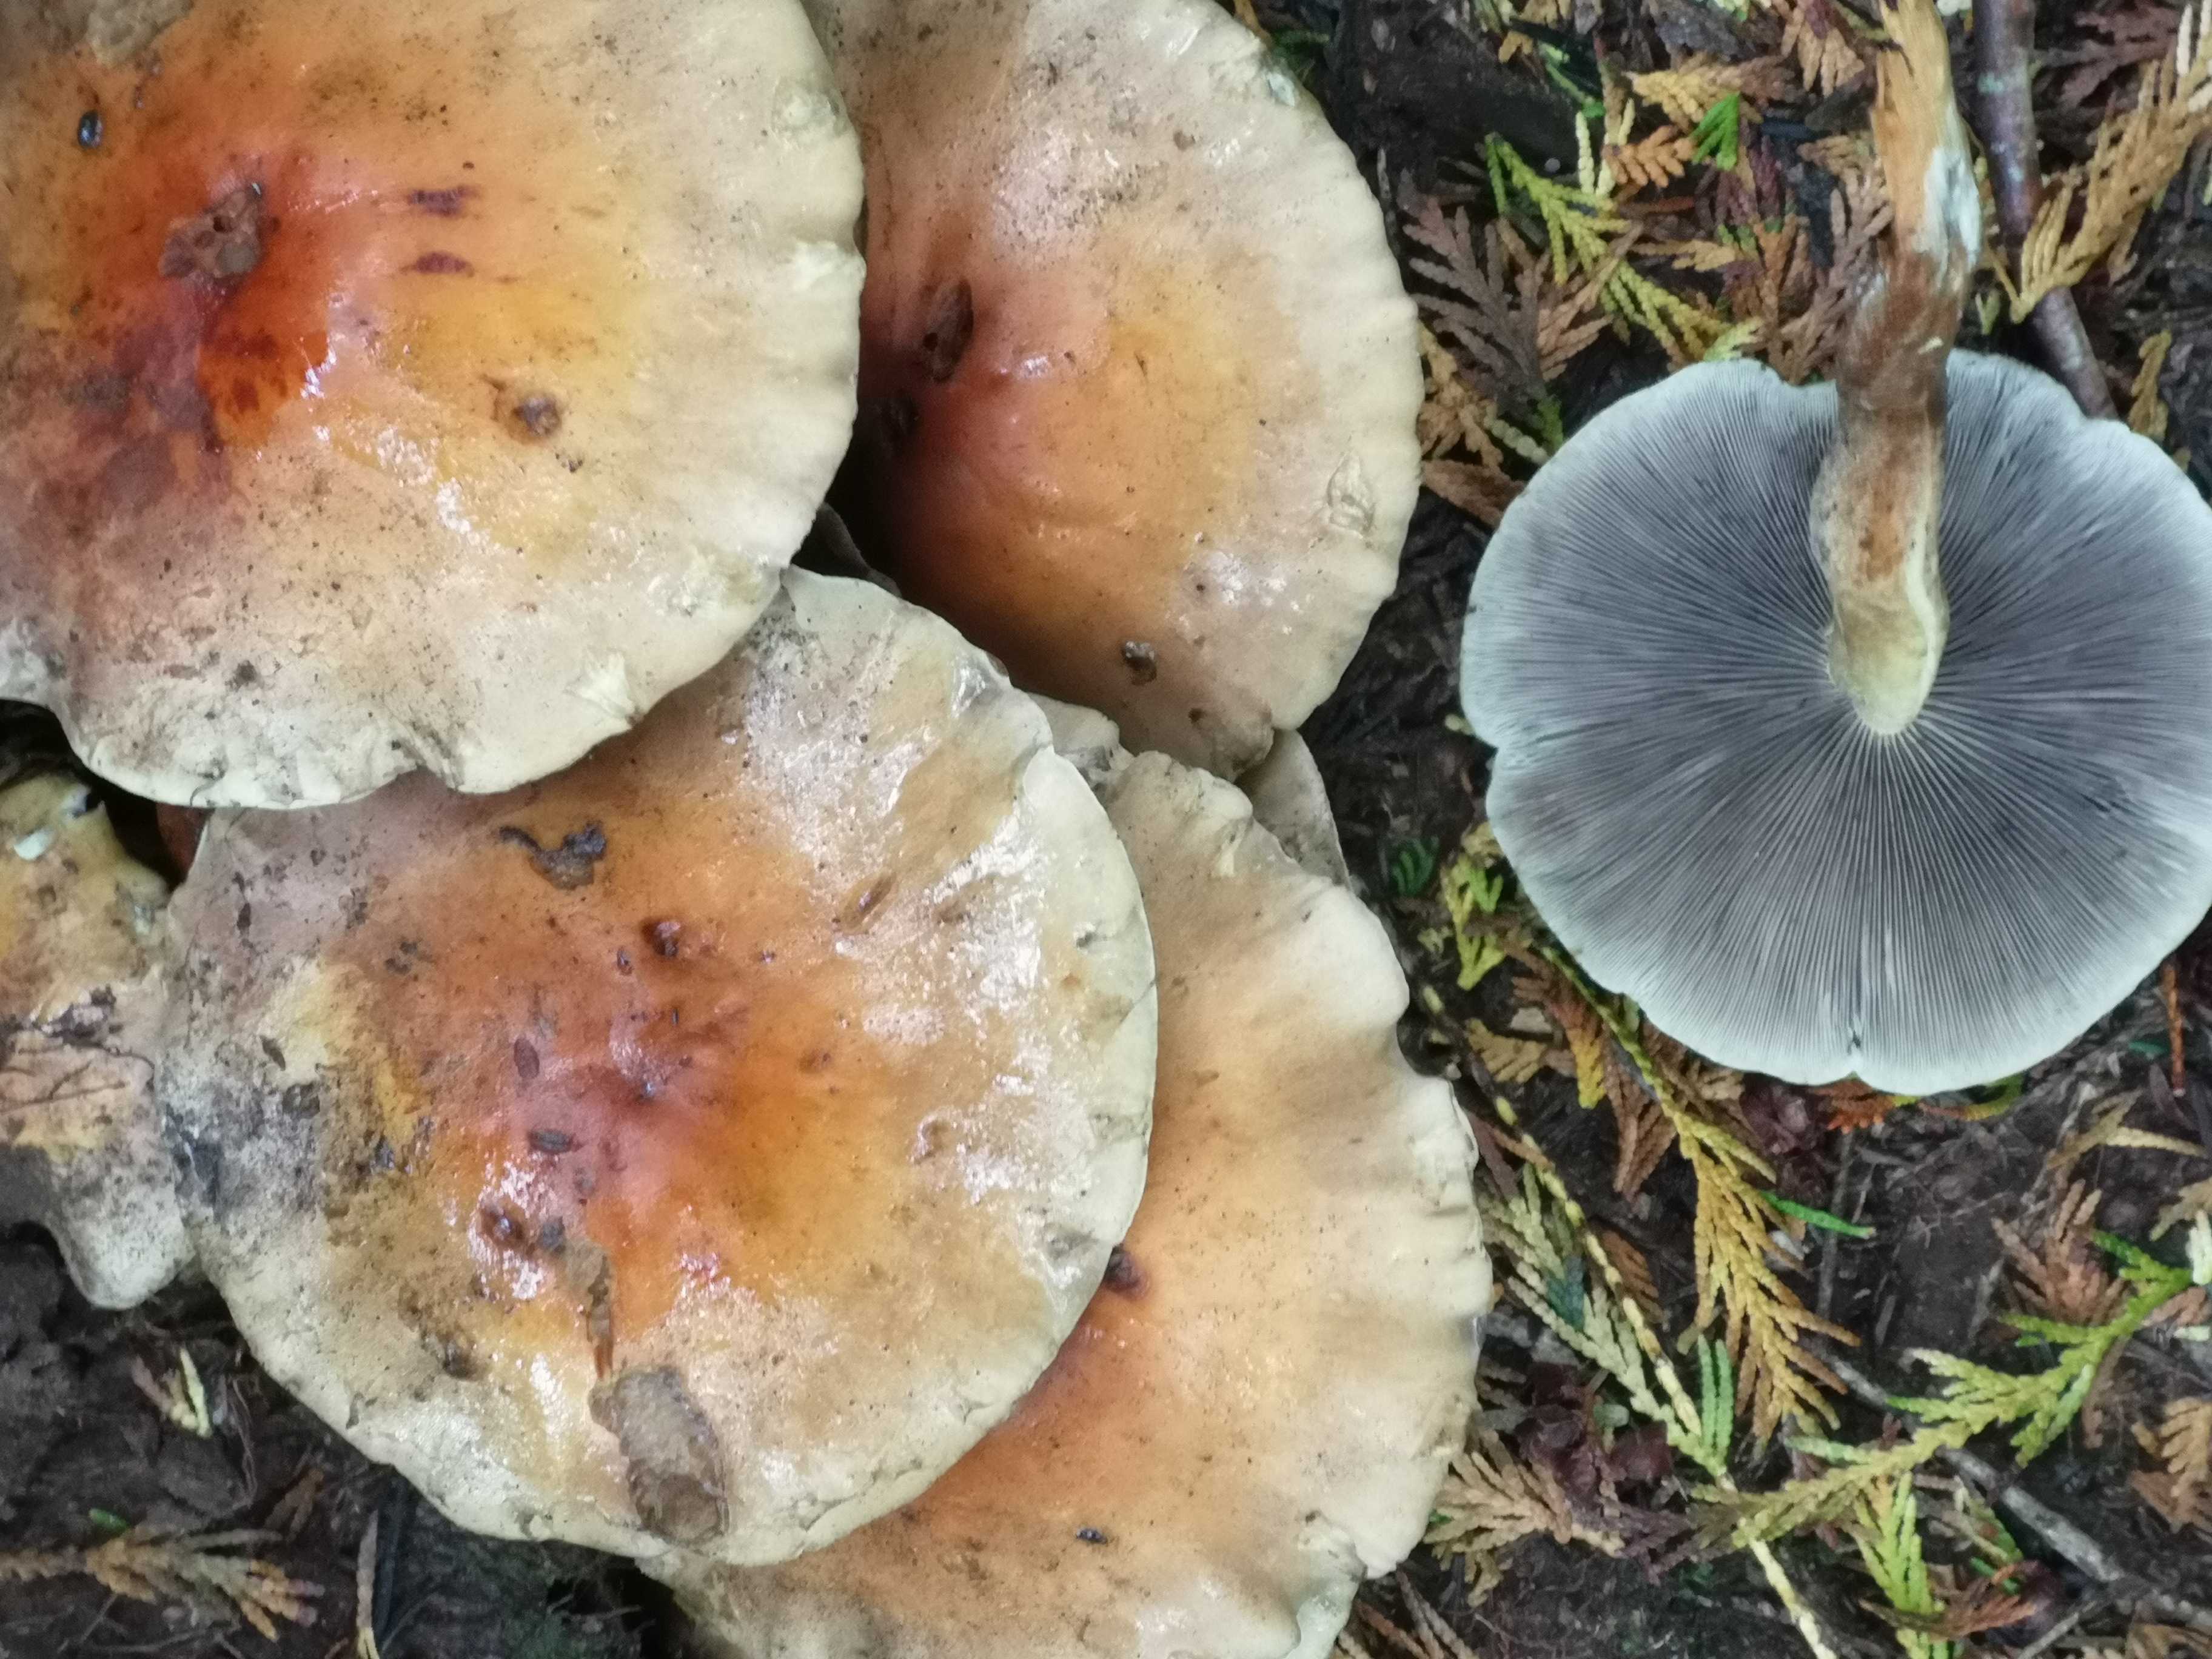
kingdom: Fungi
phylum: Basidiomycota
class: Agaricomycetes
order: Agaricales
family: Strophariaceae
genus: Hypholoma
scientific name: Hypholoma fasciculare
